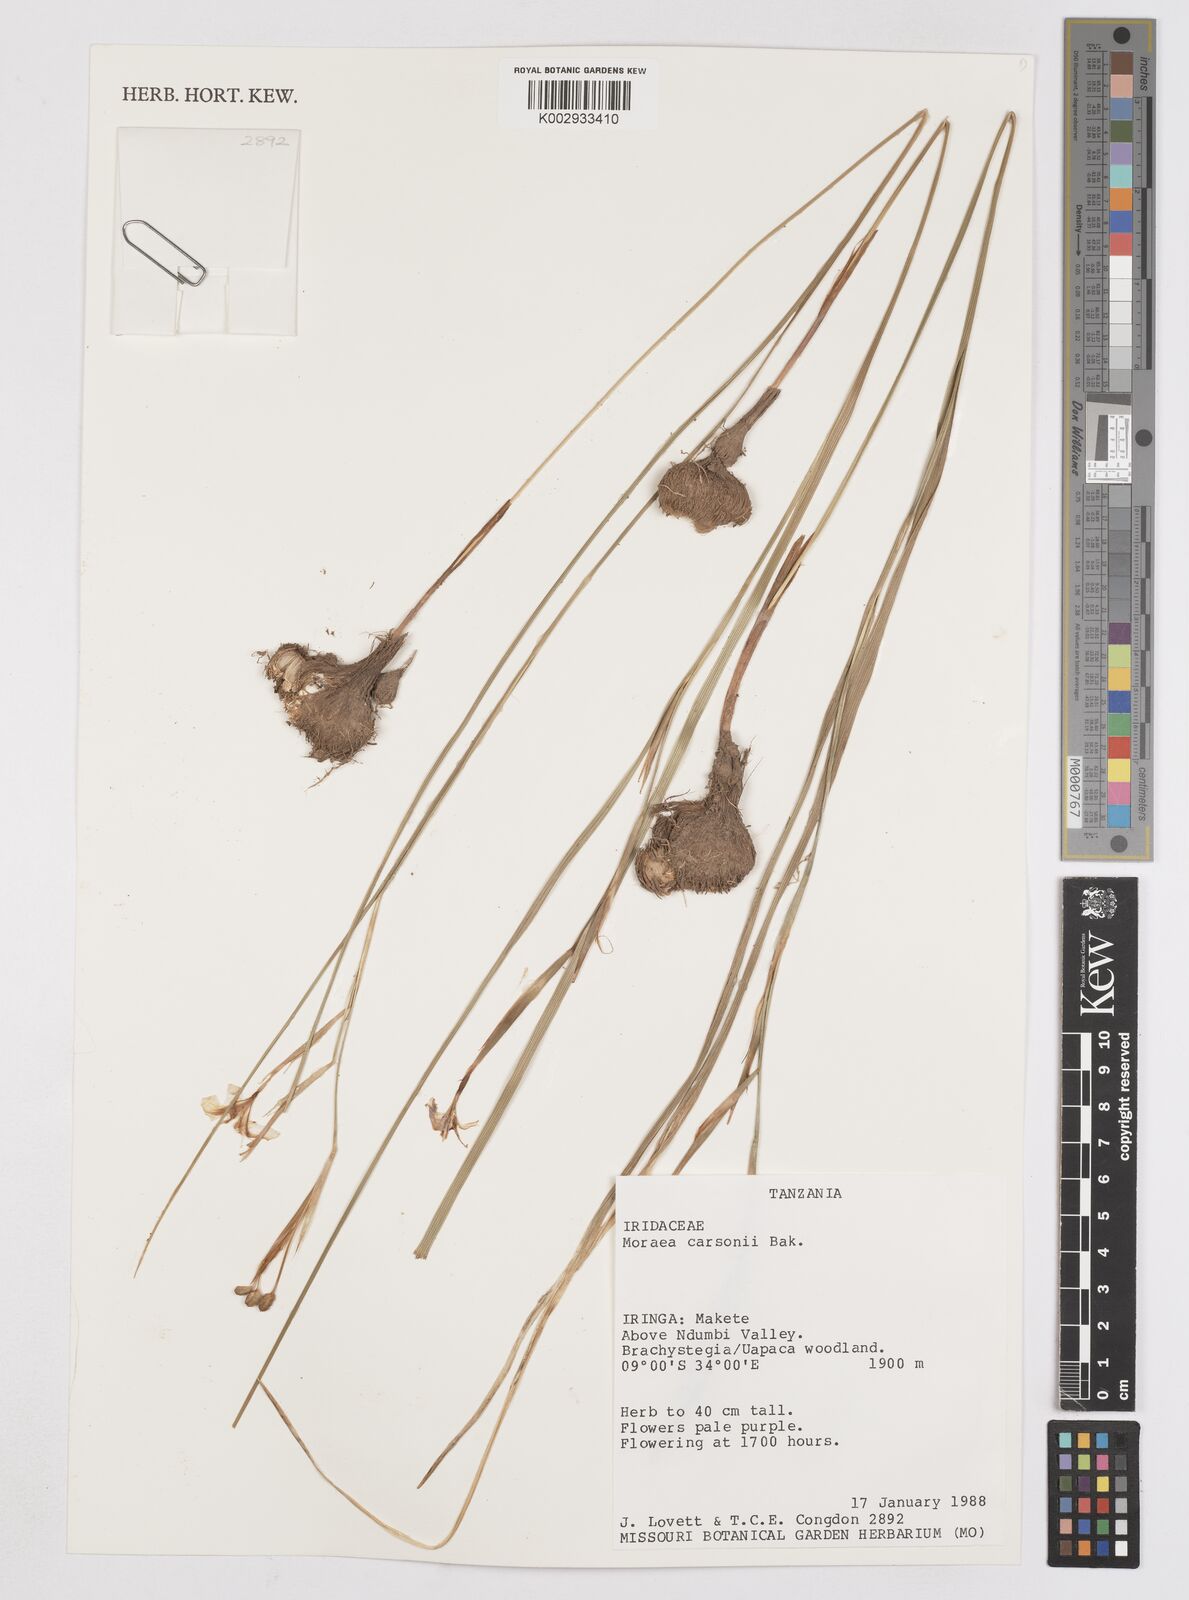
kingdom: Plantae
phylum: Tracheophyta
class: Liliopsida
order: Asparagales
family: Iridaceae
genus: Moraea
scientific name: Moraea carsonii
